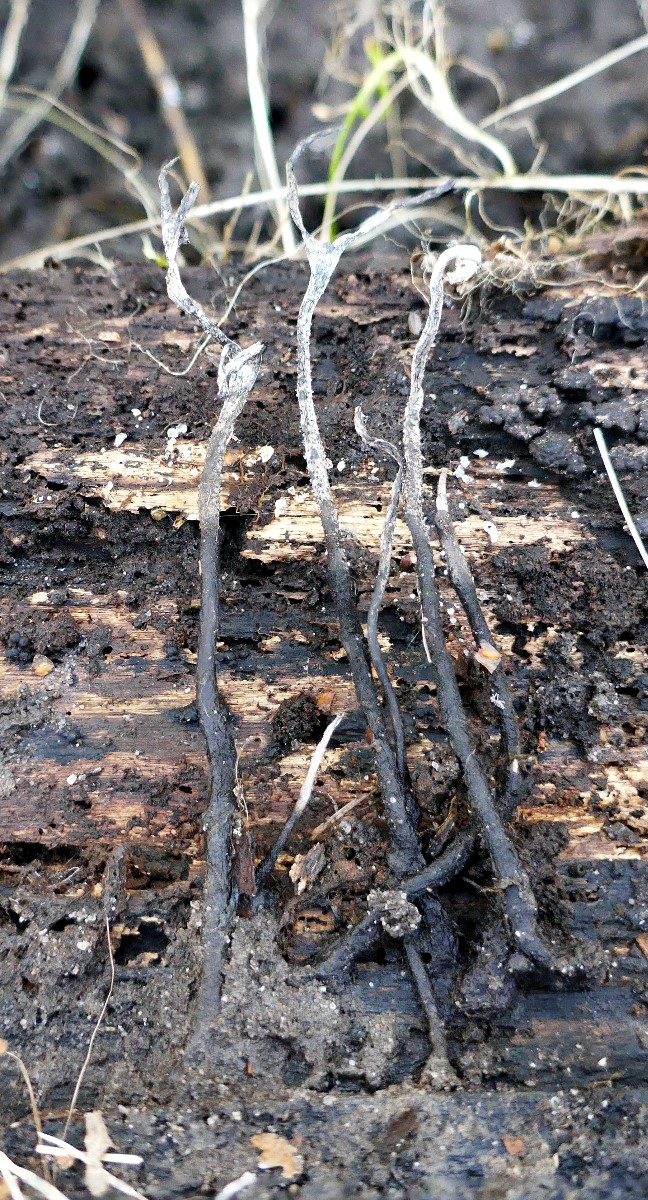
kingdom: Fungi
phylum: Ascomycota
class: Sordariomycetes
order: Xylariales
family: Xylariaceae
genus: Xylaria
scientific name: Xylaria hypoxylon
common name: grenet stødsvamp
